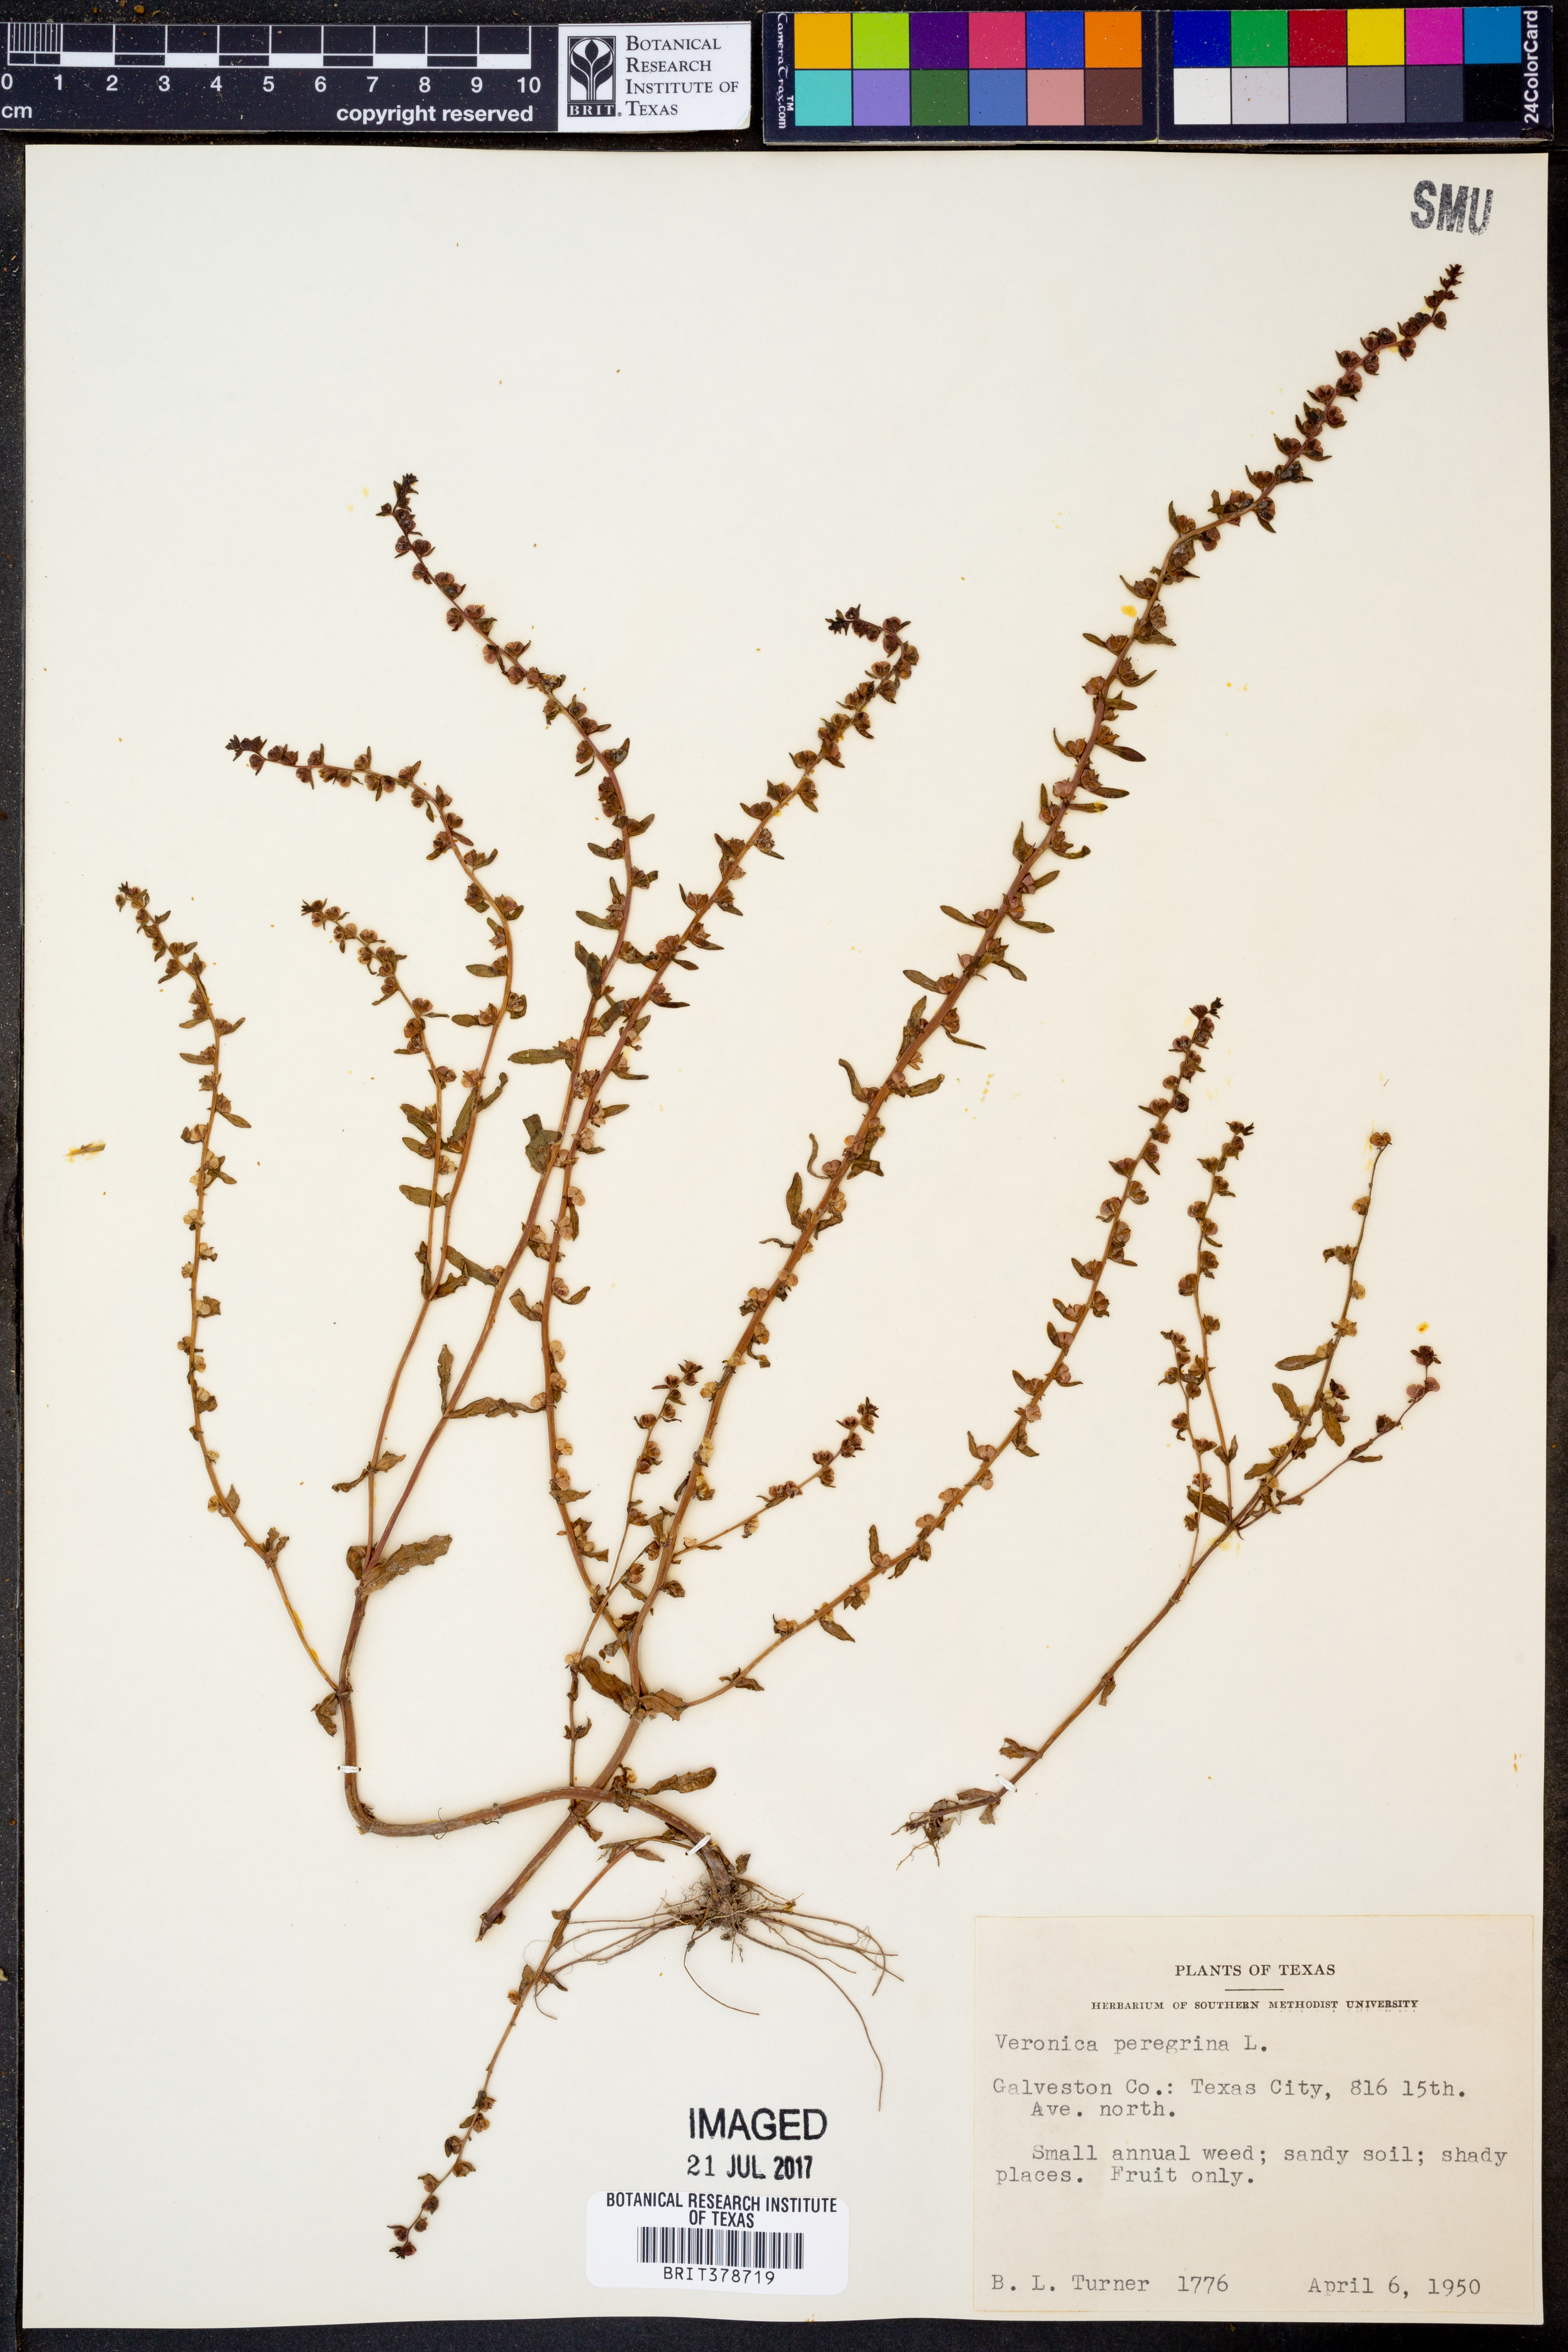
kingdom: Plantae
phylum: Tracheophyta
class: Magnoliopsida
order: Lamiales
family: Plantaginaceae
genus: Veronica
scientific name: Veronica peregrina
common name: Neckweed
